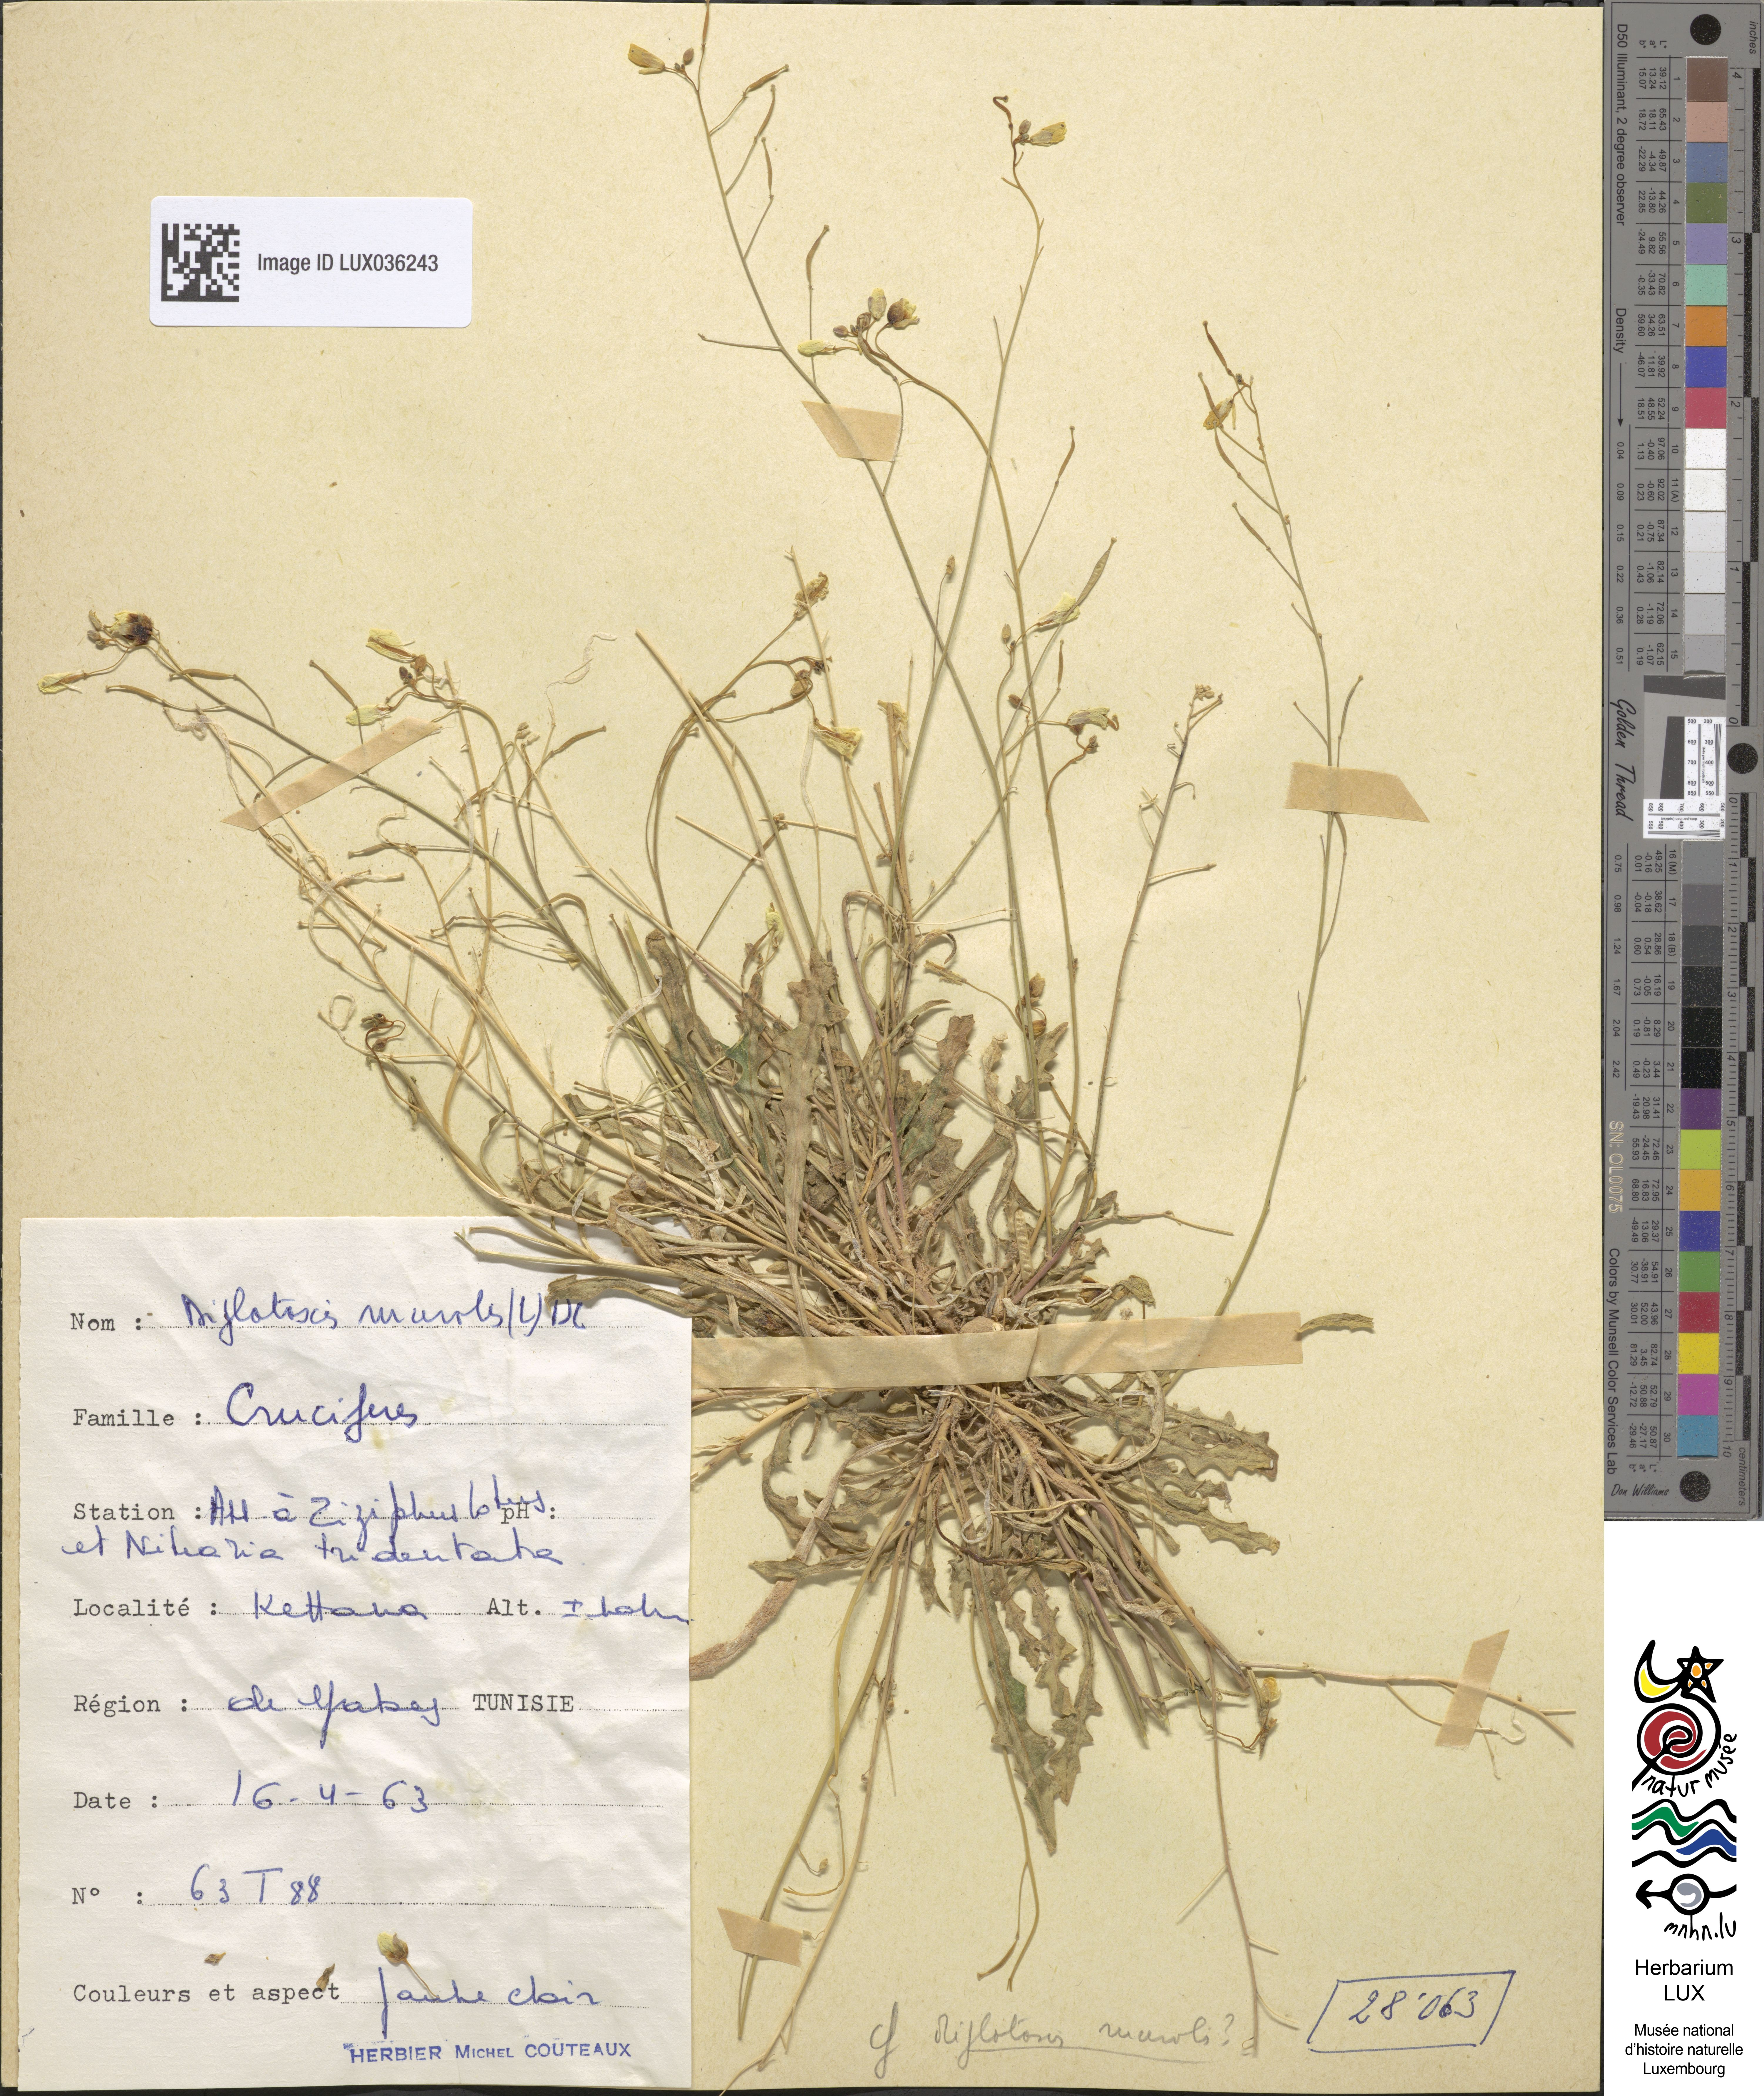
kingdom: Plantae
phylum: Tracheophyta
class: Magnoliopsida
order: Brassicales
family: Brassicaceae
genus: Diplotaxis
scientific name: Diplotaxis muralis
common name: Annual wall-rocket
